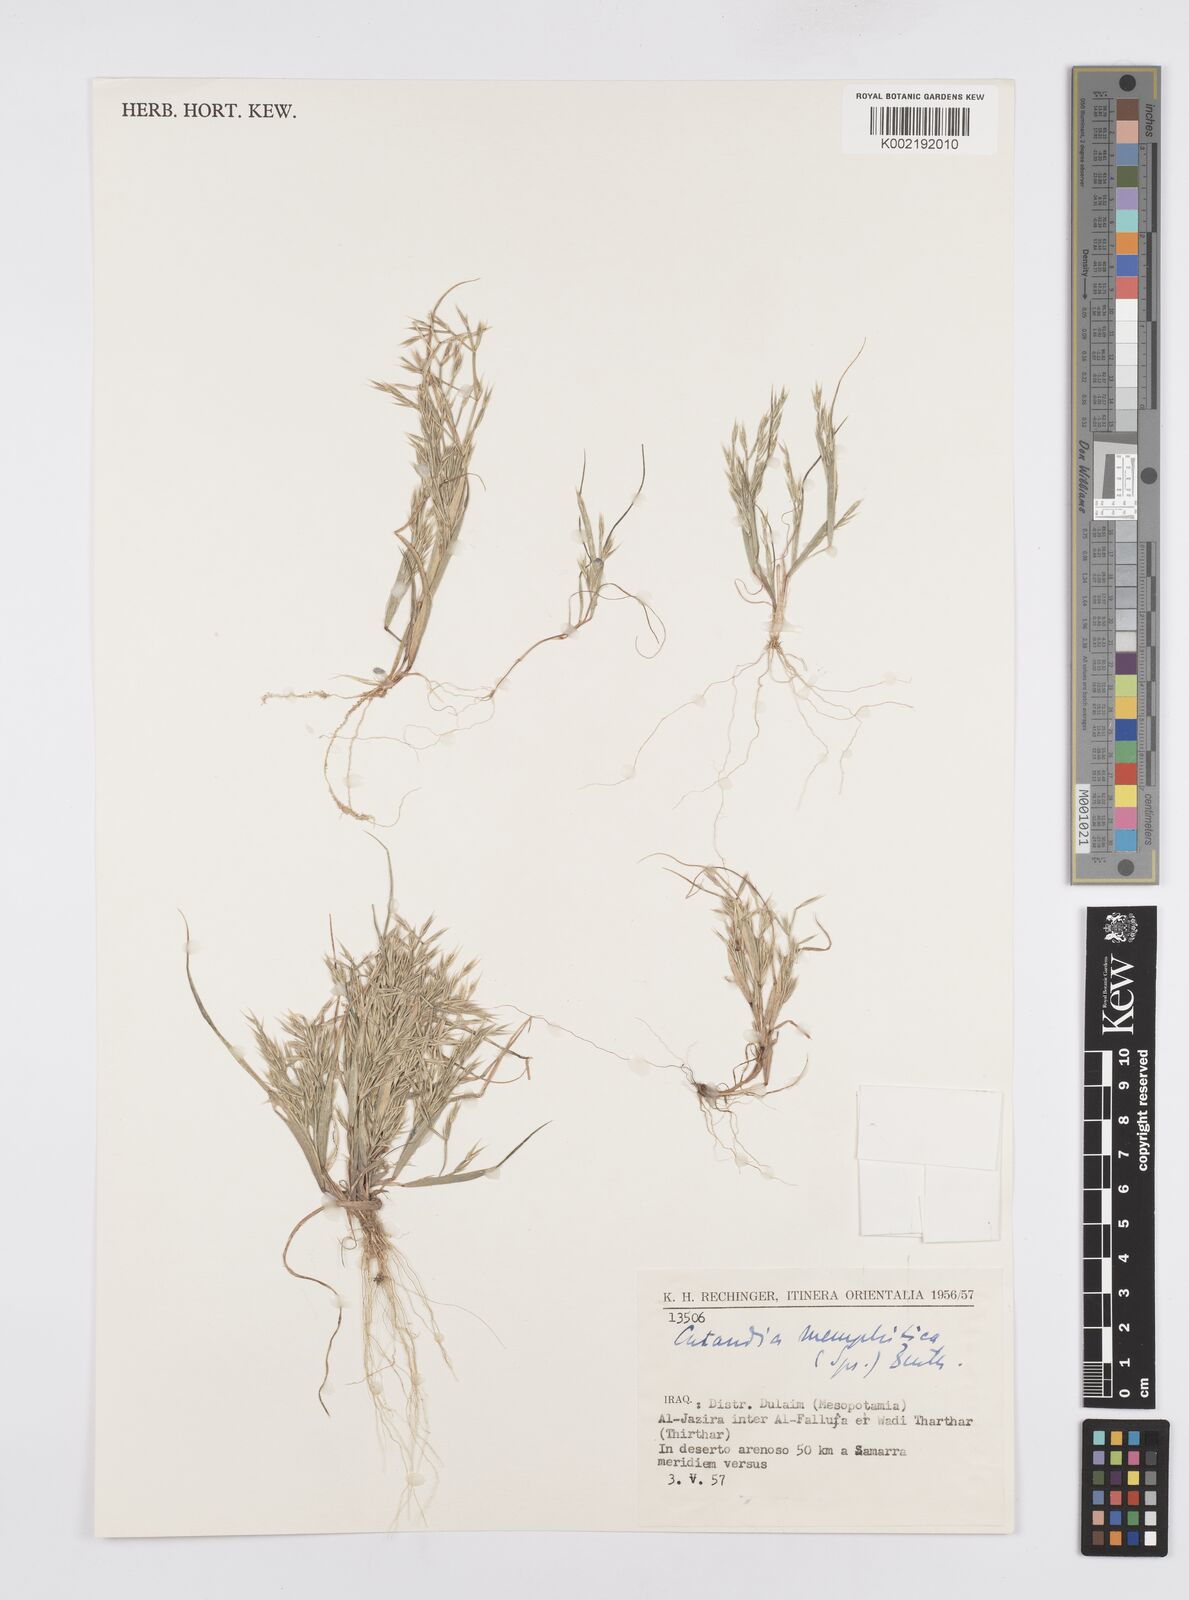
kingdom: Plantae
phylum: Tracheophyta
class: Liliopsida
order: Poales
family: Poaceae
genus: Cutandia
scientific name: Cutandia memphitica
